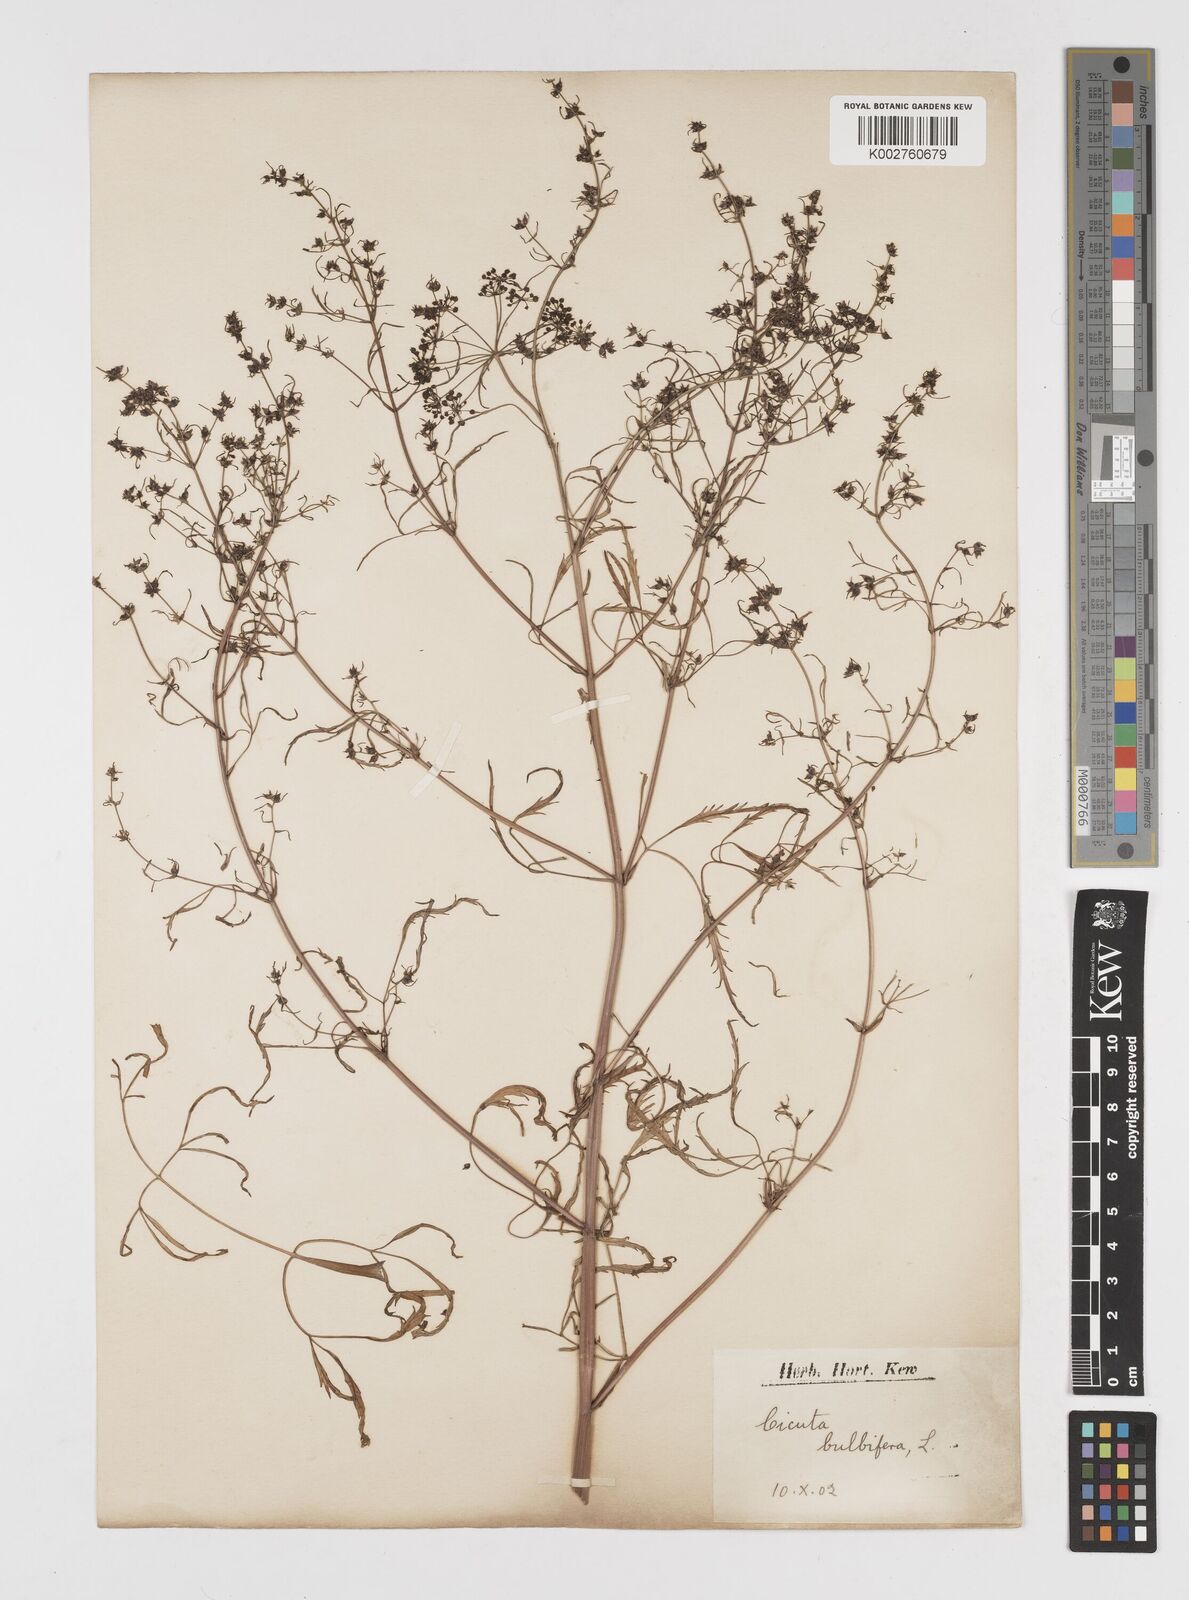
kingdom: Plantae
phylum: Tracheophyta
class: Magnoliopsida
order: Apiales
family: Apiaceae
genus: Cicuta
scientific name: Cicuta virosa
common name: Cowbane
